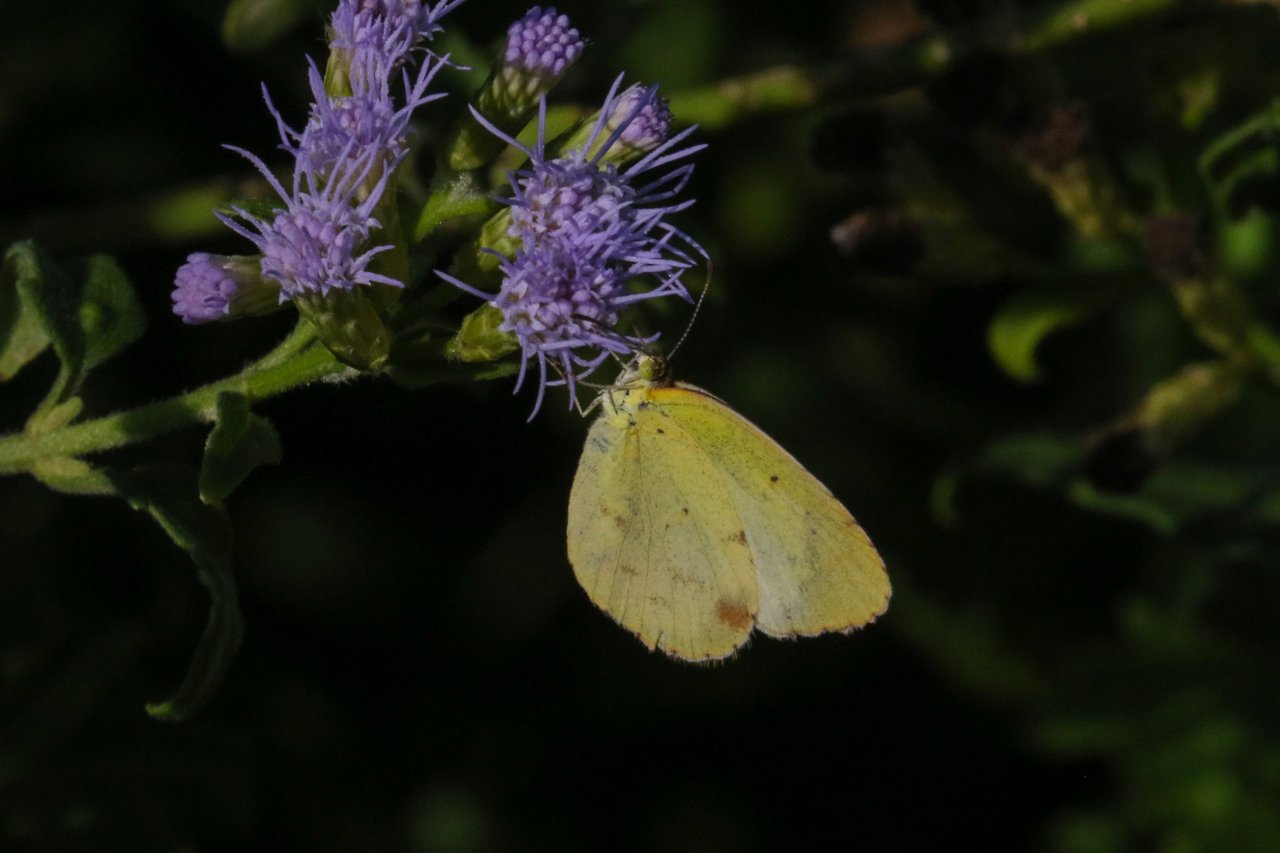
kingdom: Animalia
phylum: Arthropoda
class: Insecta
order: Lepidoptera
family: Pieridae
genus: Pyrisitia
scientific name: Pyrisitia lisa
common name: Little Yellow
